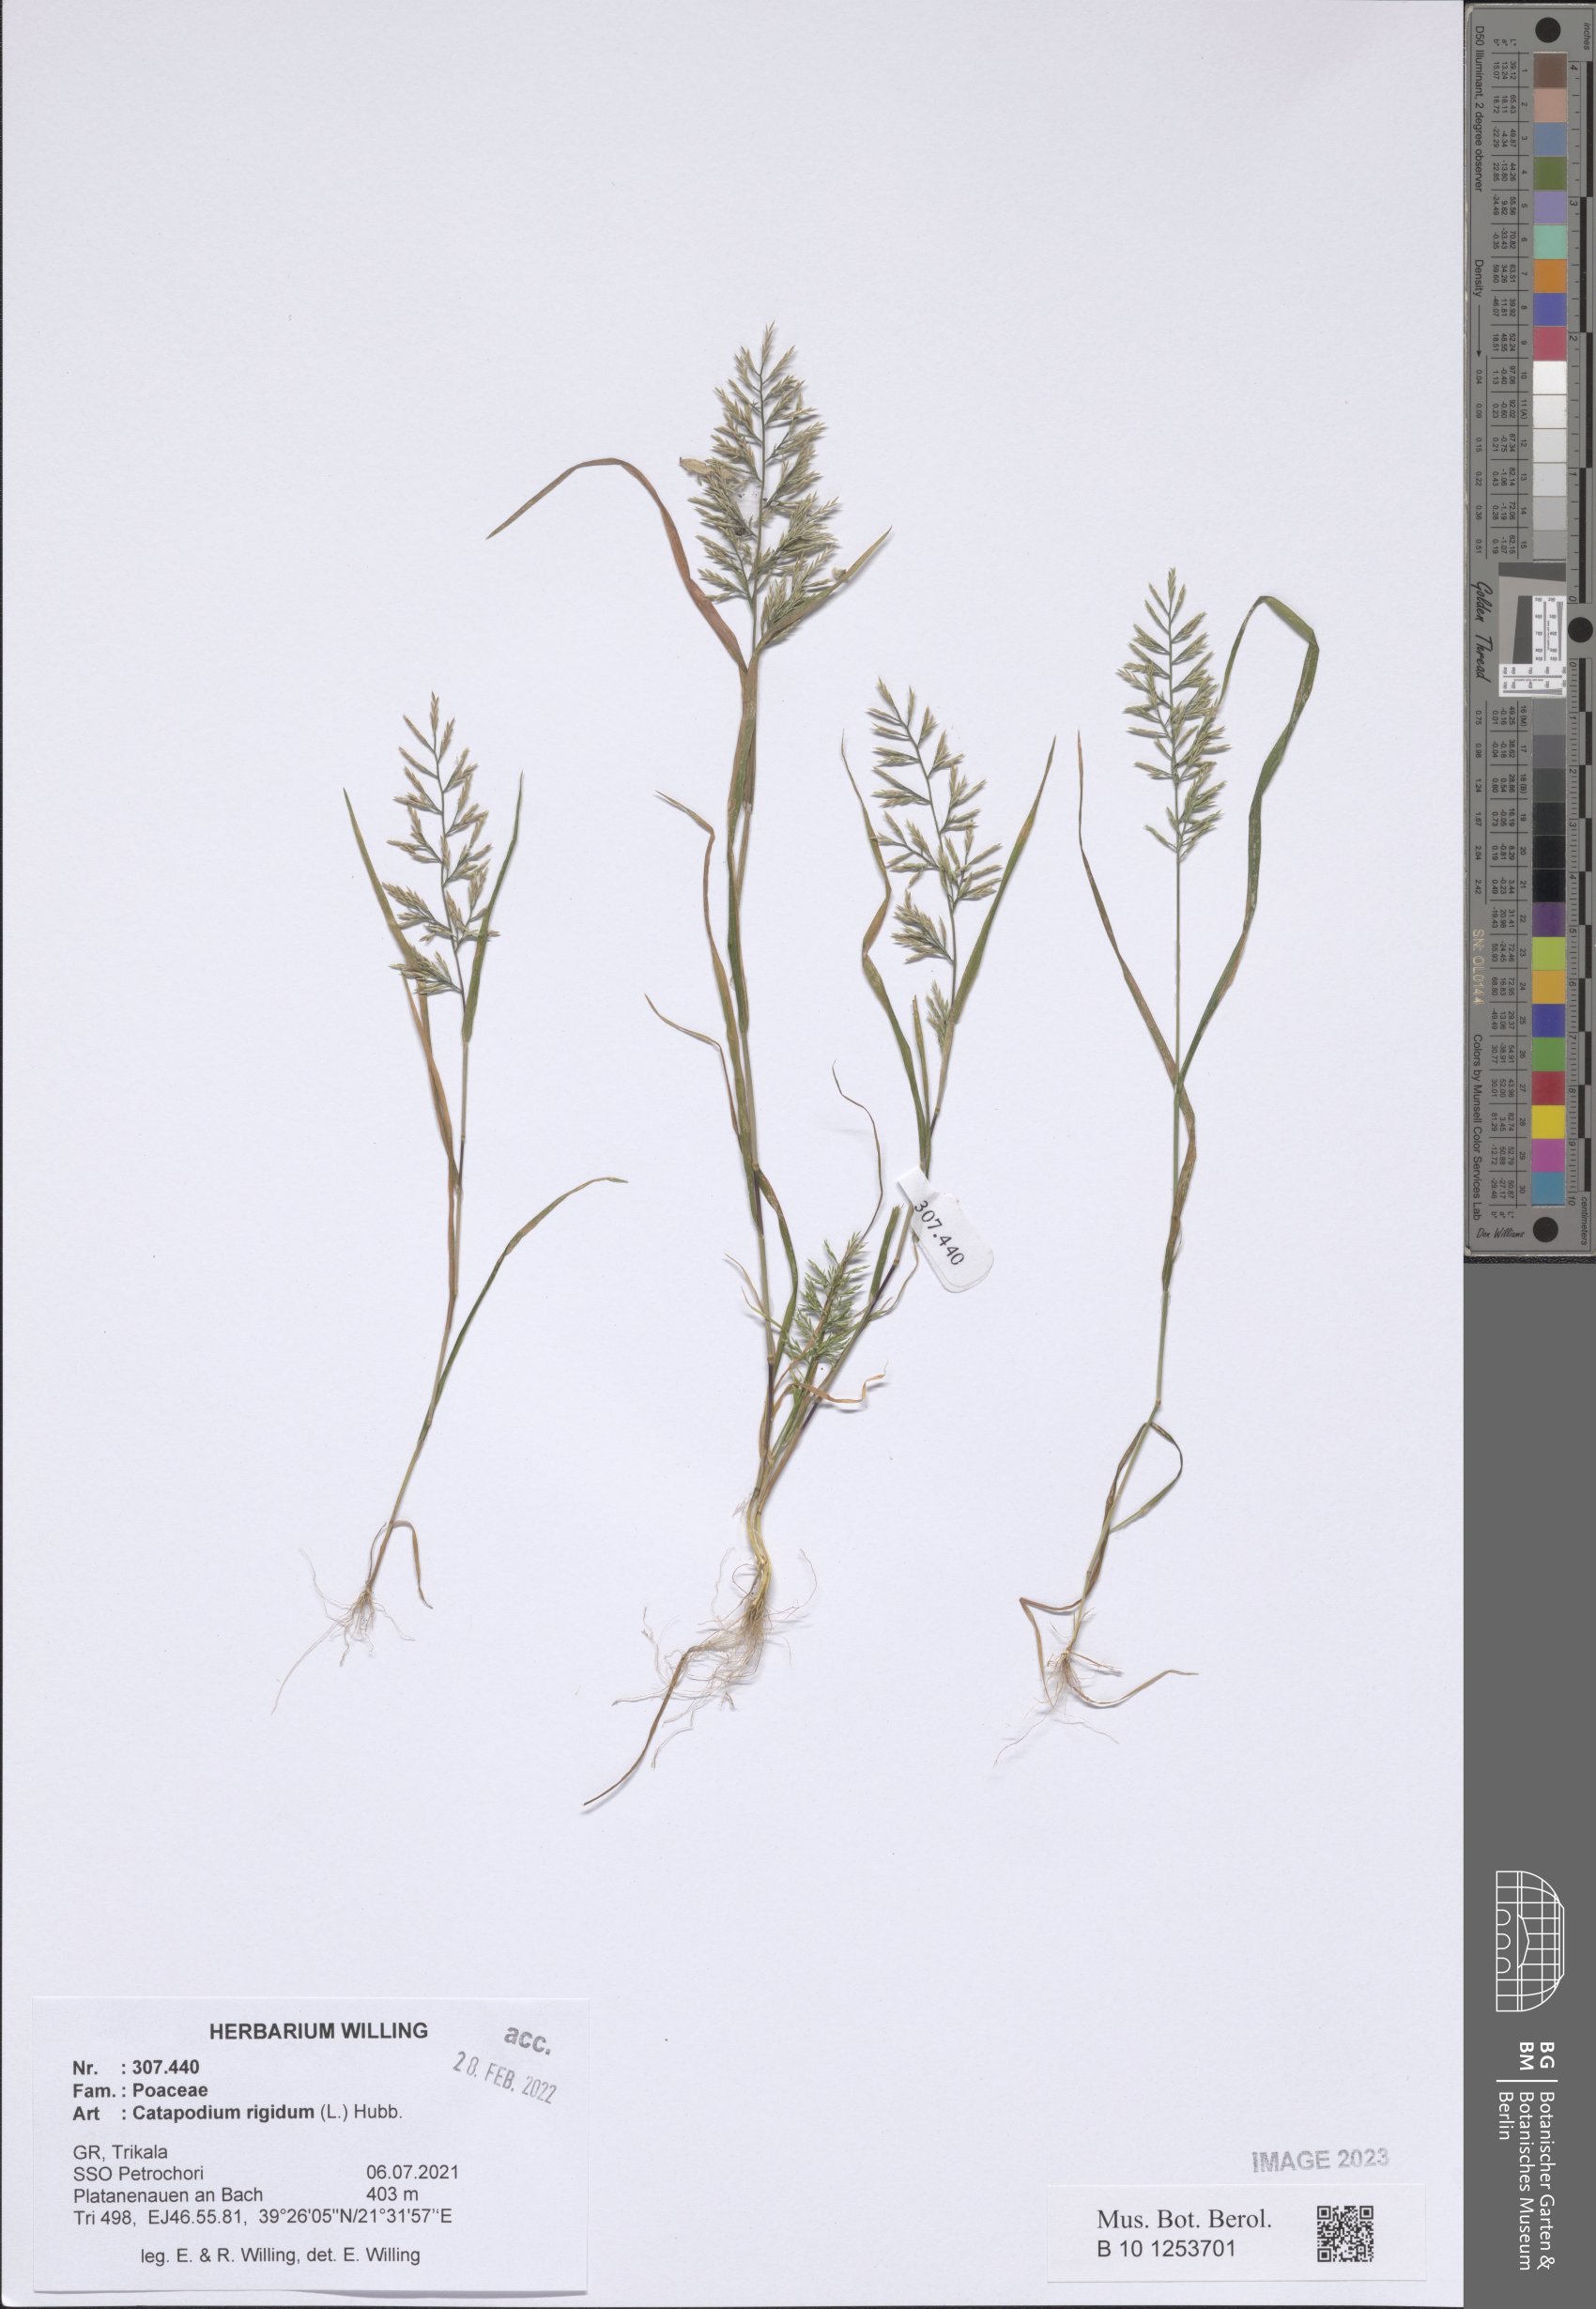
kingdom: Plantae
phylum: Tracheophyta
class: Liliopsida
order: Poales
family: Poaceae
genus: Catapodium
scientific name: Catapodium rigidum
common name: Fern-grass
